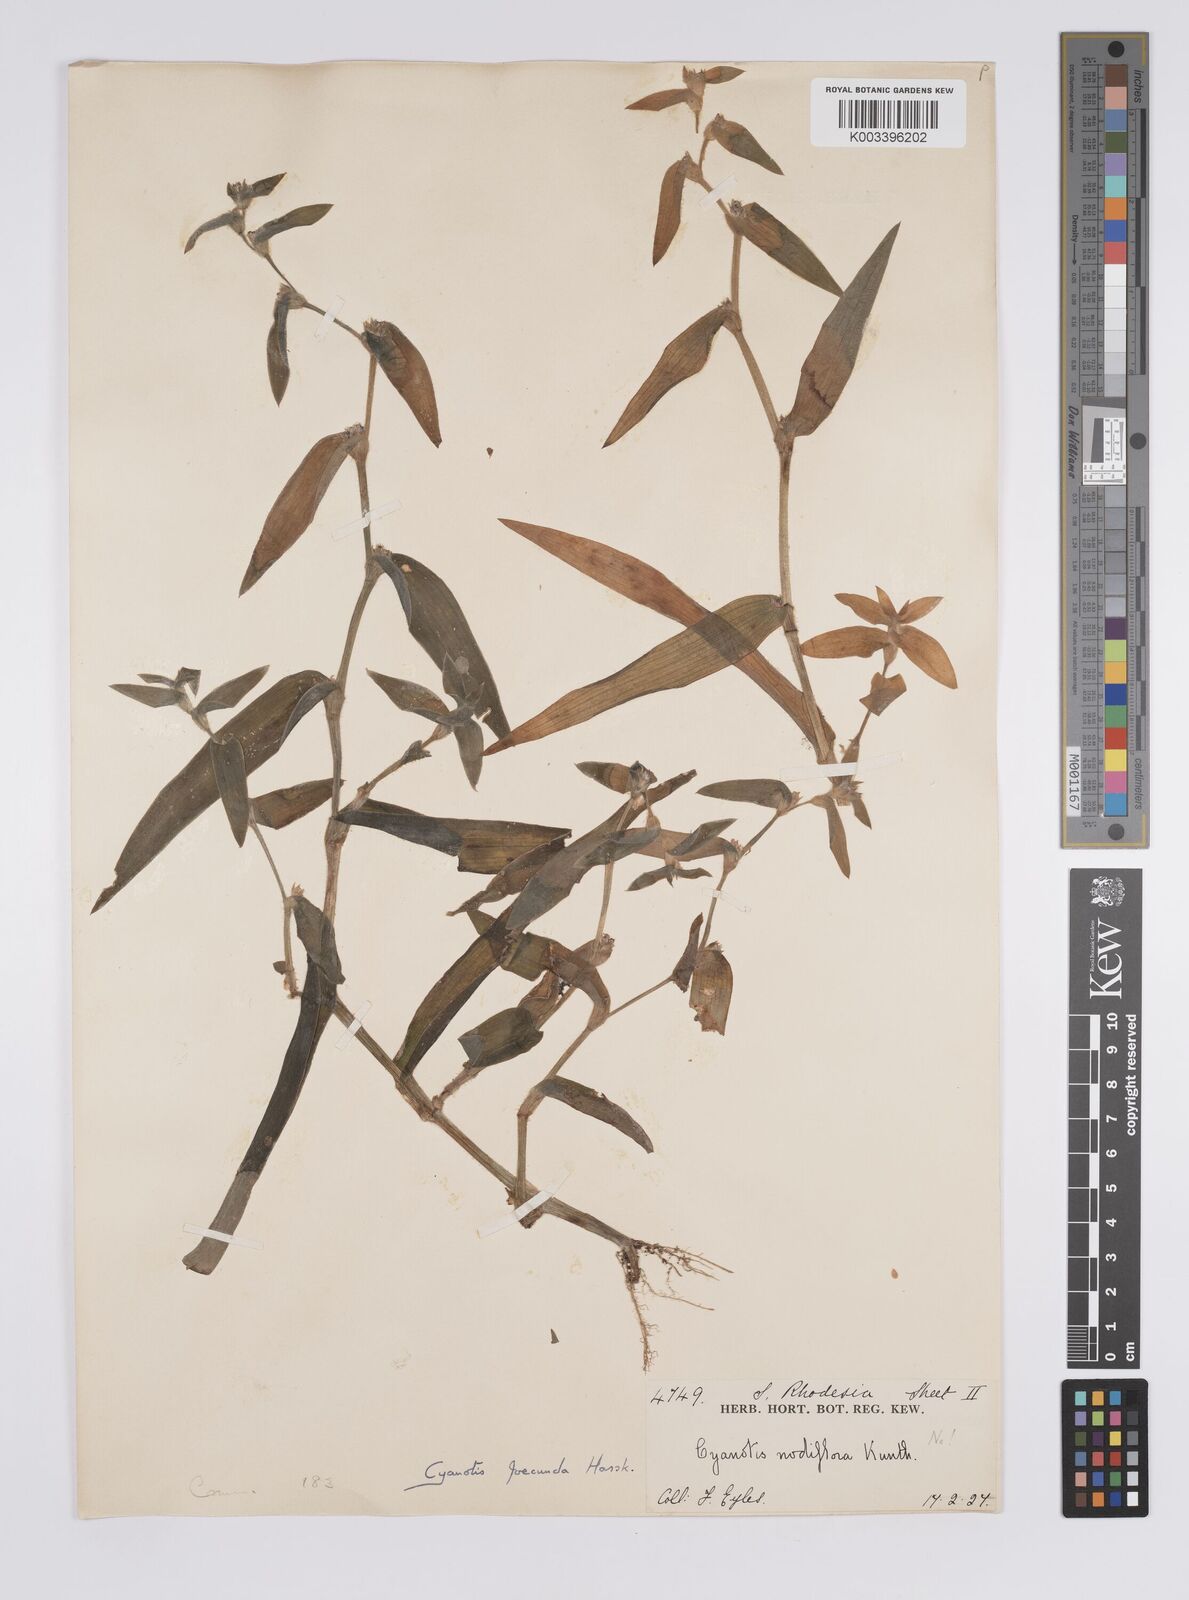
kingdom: Plantae
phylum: Tracheophyta
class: Liliopsida
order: Commelinales
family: Commelinaceae
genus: Cyanotis
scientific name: Cyanotis foecunda
